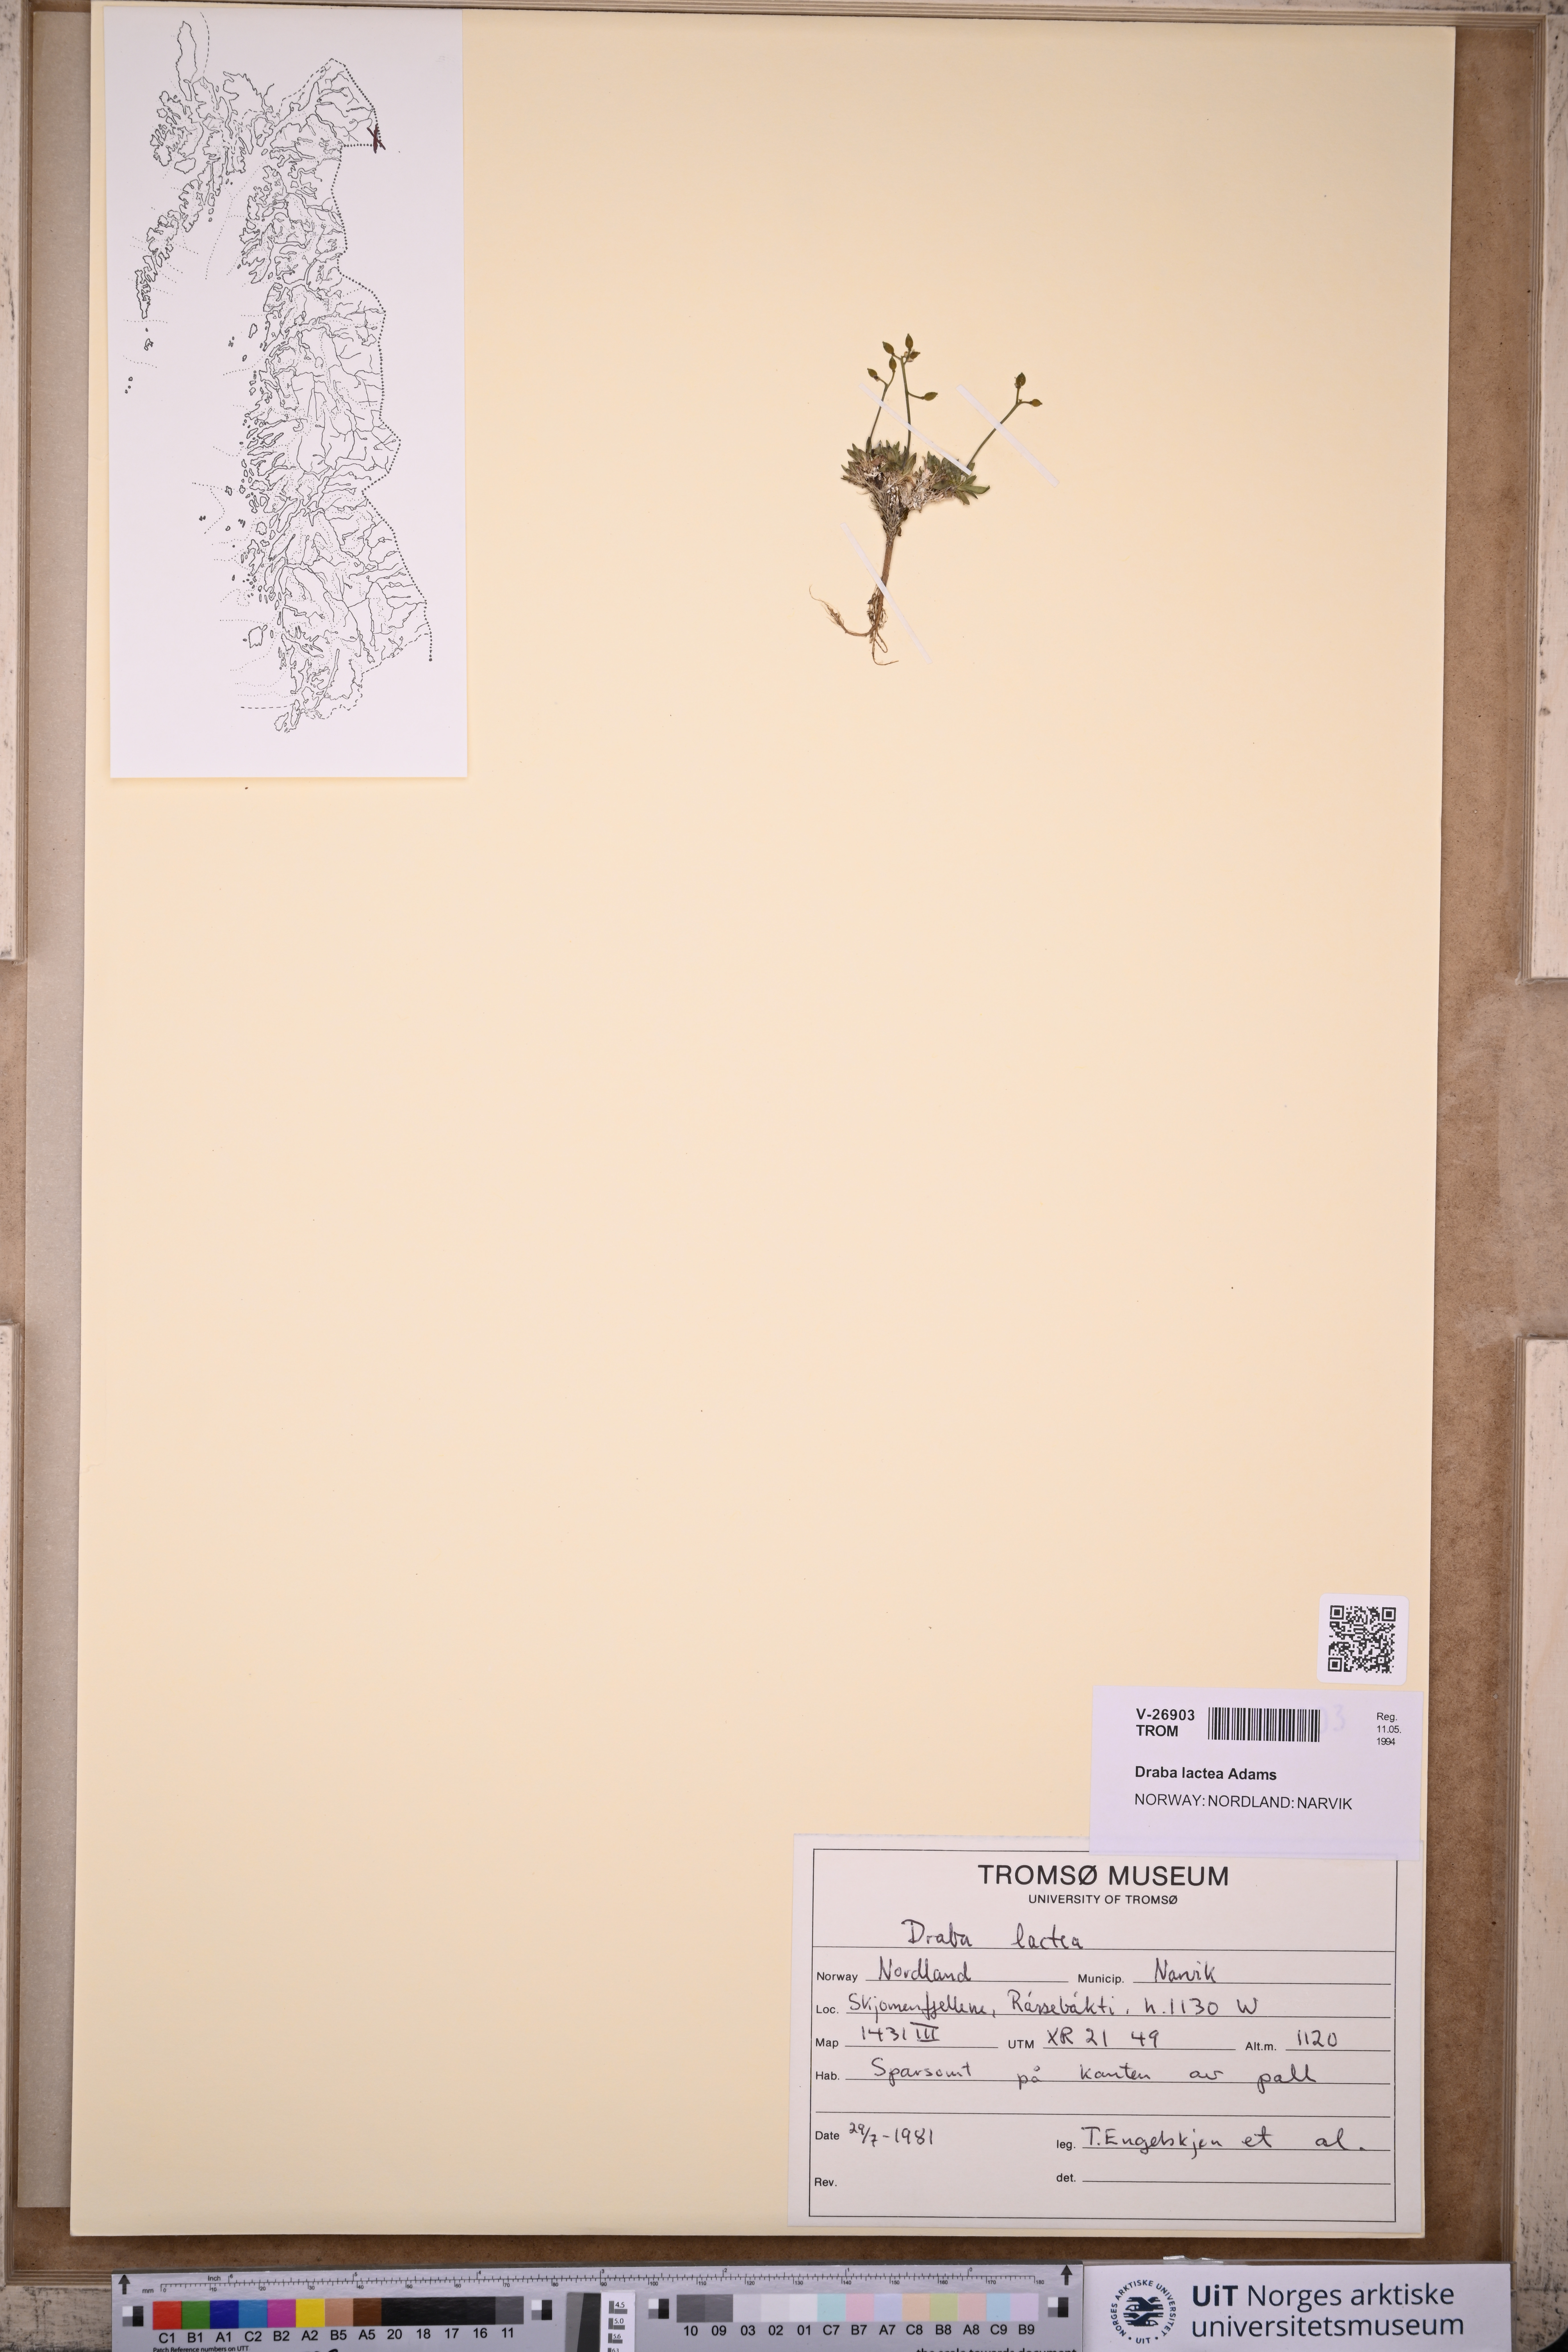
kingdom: Plantae
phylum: Tracheophyta
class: Magnoliopsida
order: Brassicales
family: Brassicaceae
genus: Draba
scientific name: Draba lactea
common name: Milky draba
